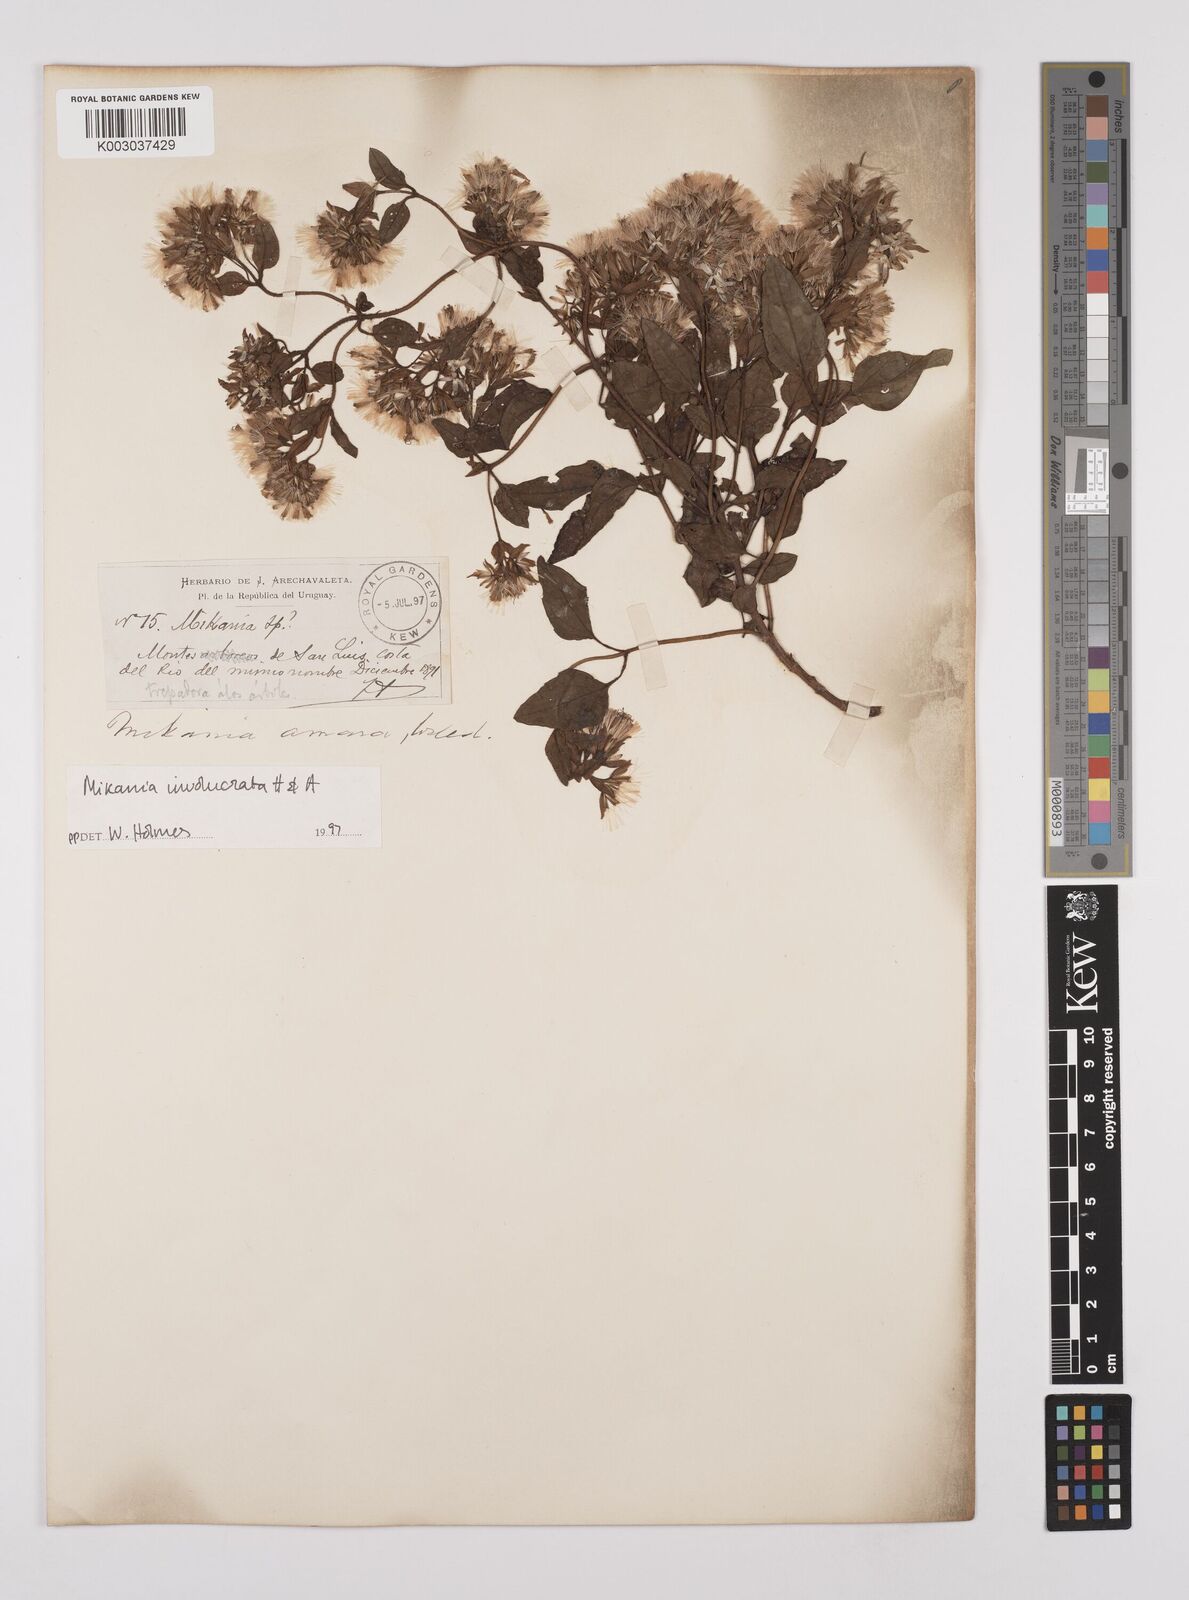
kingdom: Plantae
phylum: Tracheophyta
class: Magnoliopsida
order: Asterales
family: Asteraceae
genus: Mikania
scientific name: Mikania involucrata
